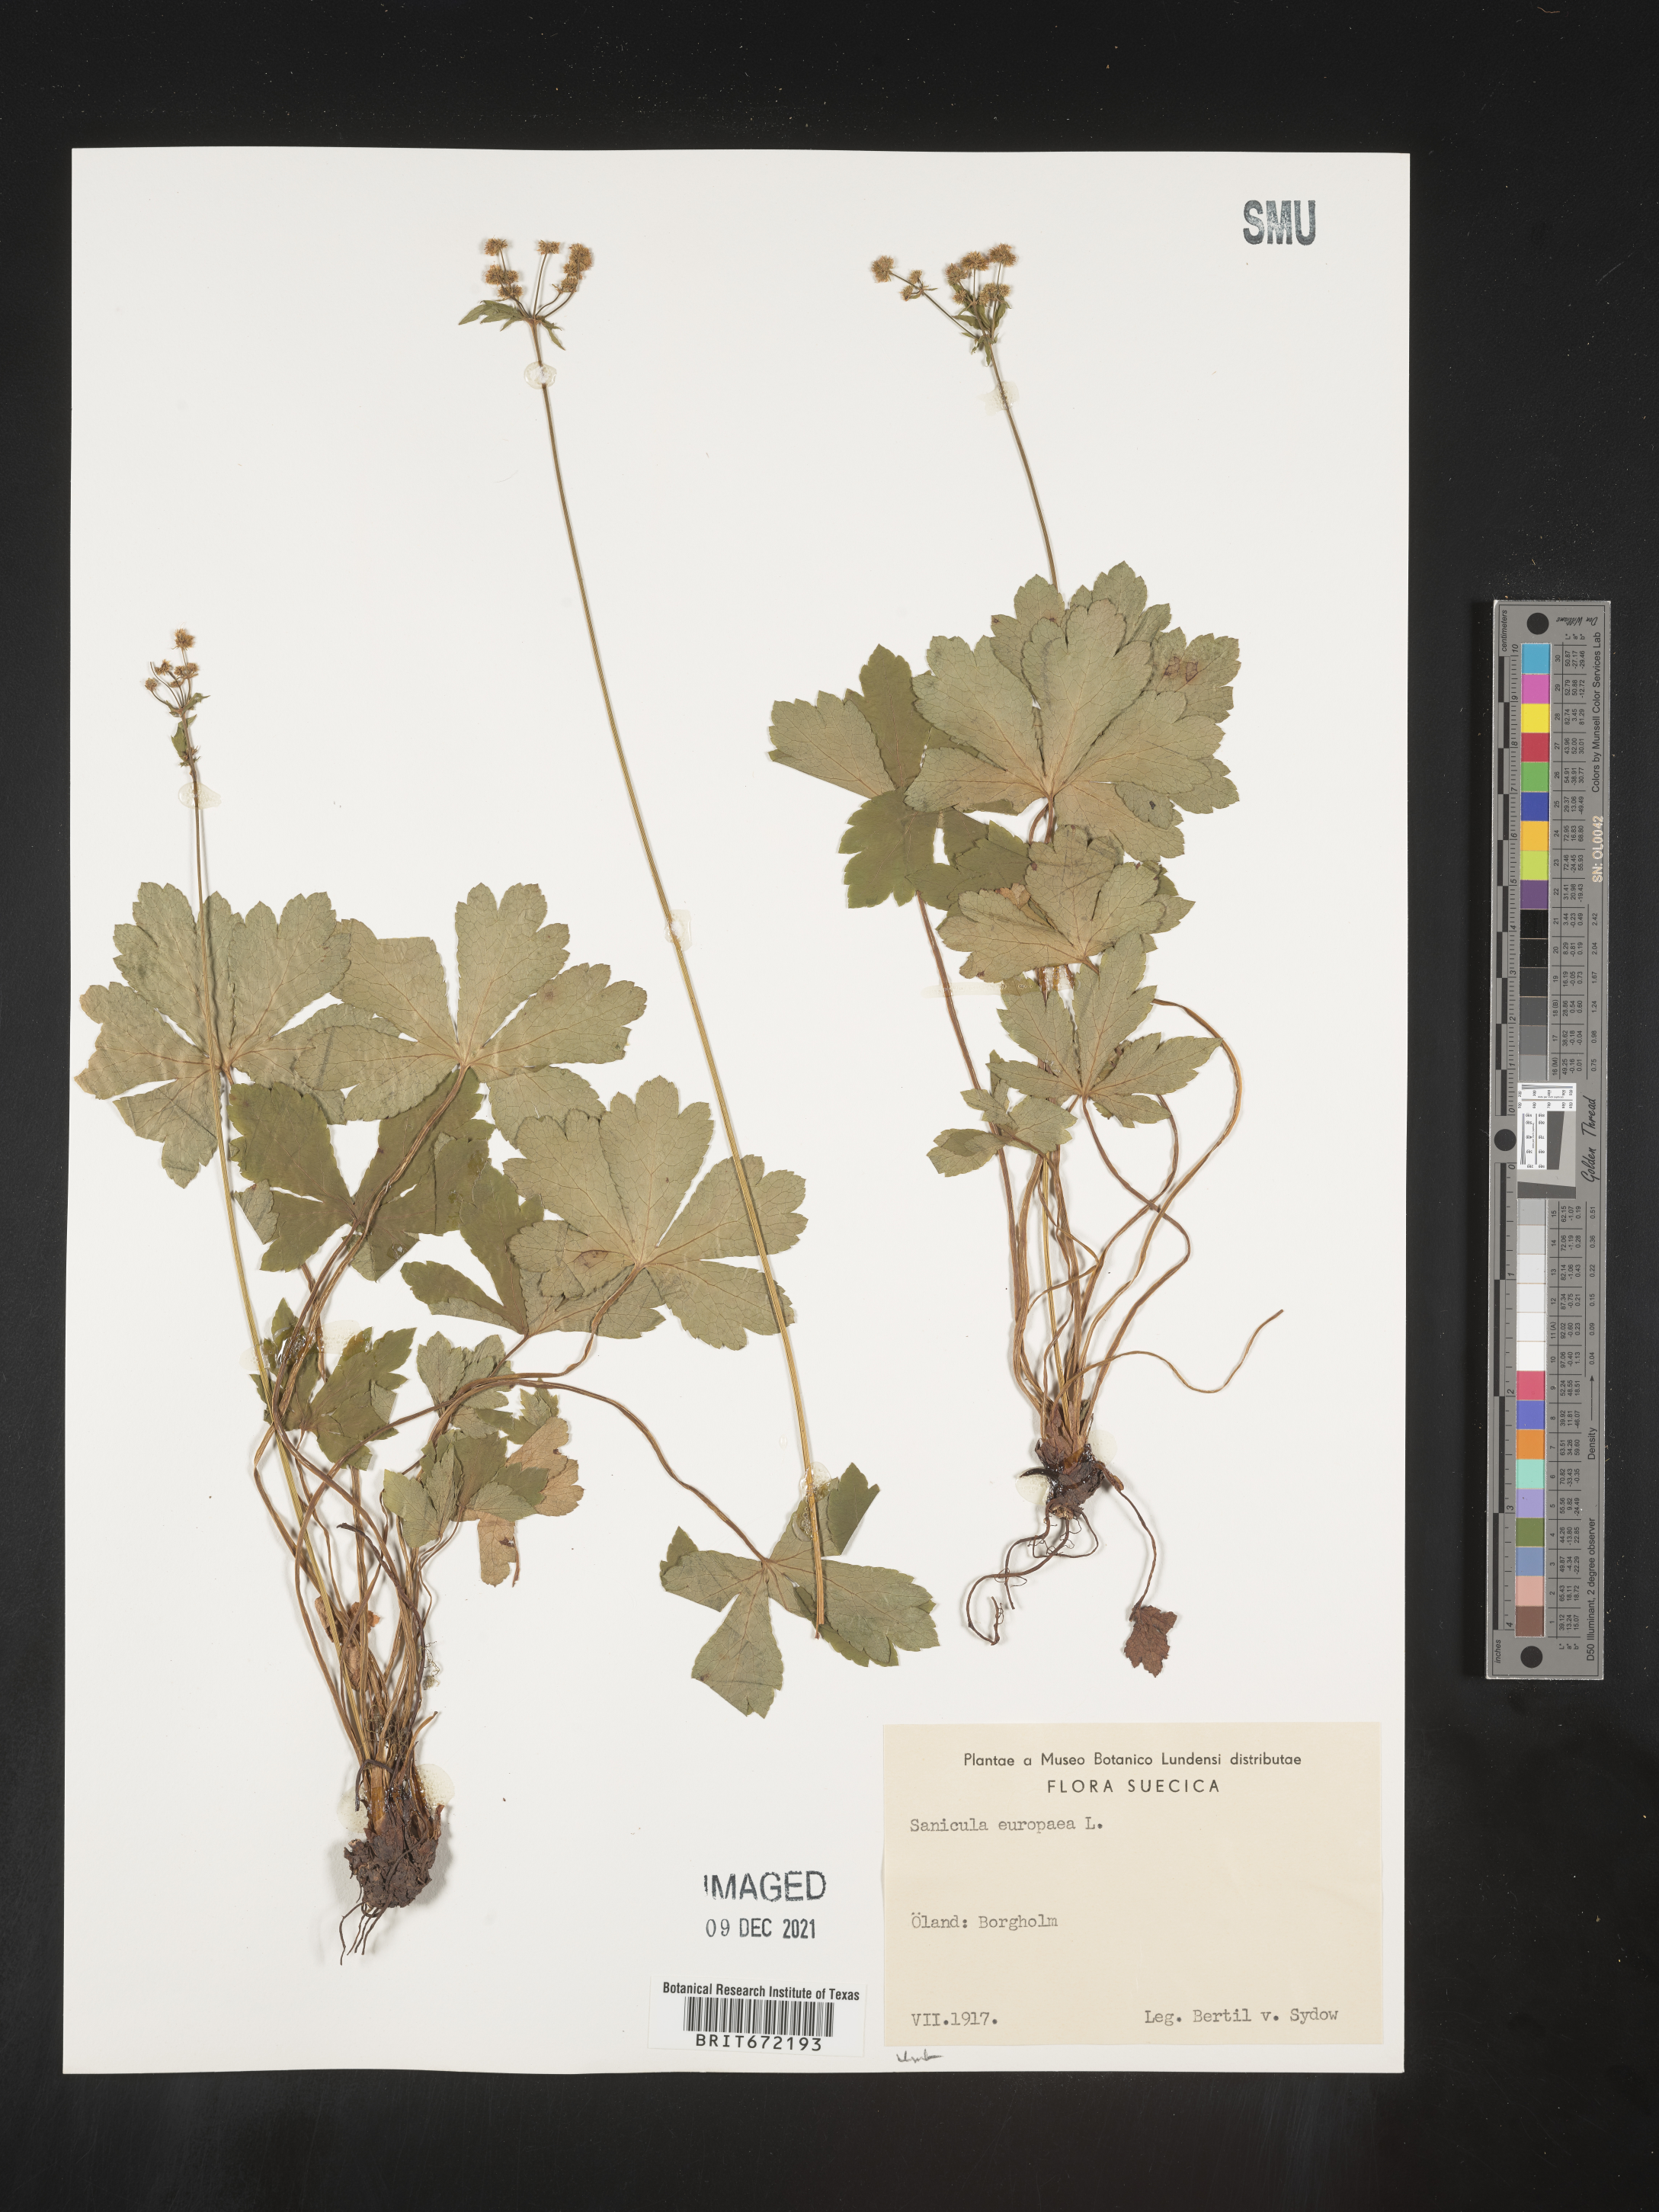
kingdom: Plantae
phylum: Tracheophyta
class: Magnoliopsida
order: Apiales
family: Apiaceae
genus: Sanicula
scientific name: Sanicula
